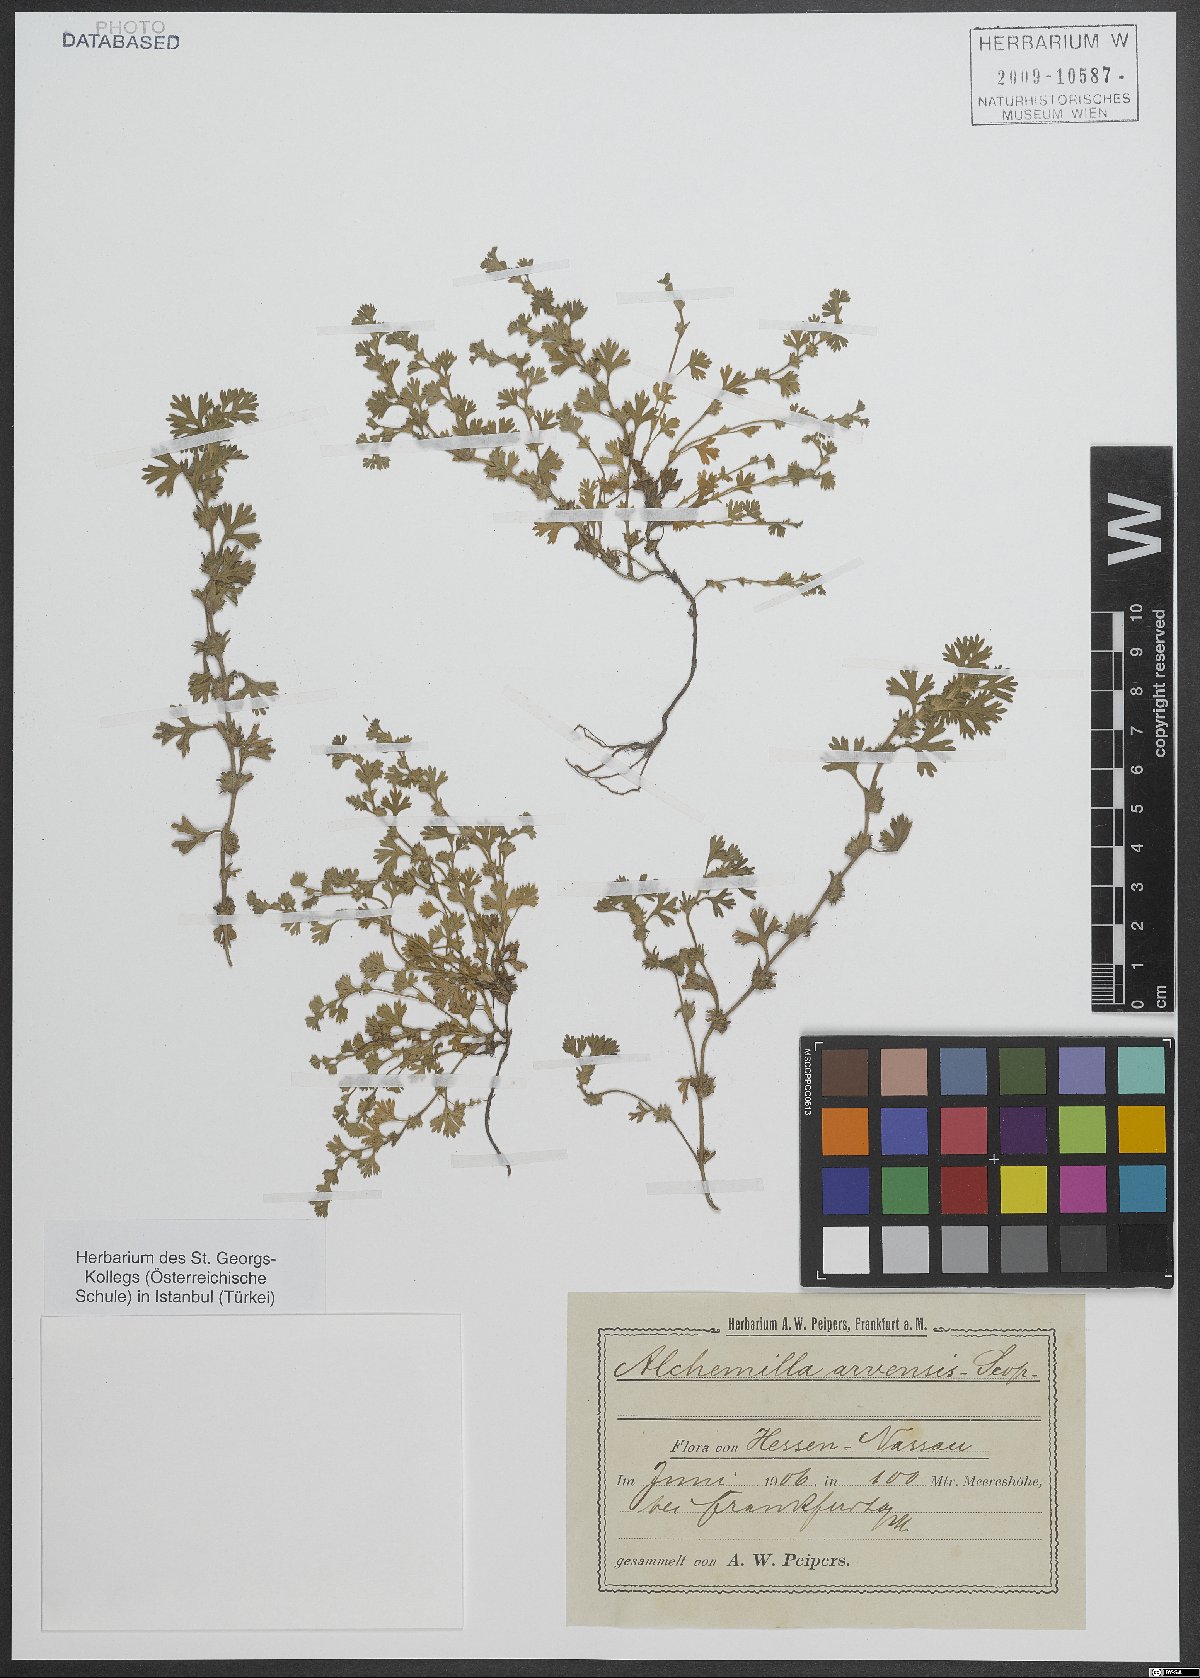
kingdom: Plantae
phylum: Tracheophyta
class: Magnoliopsida
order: Rosales
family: Rosaceae
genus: Aphanes
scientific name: Aphanes arvensis
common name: Parsley-piert
